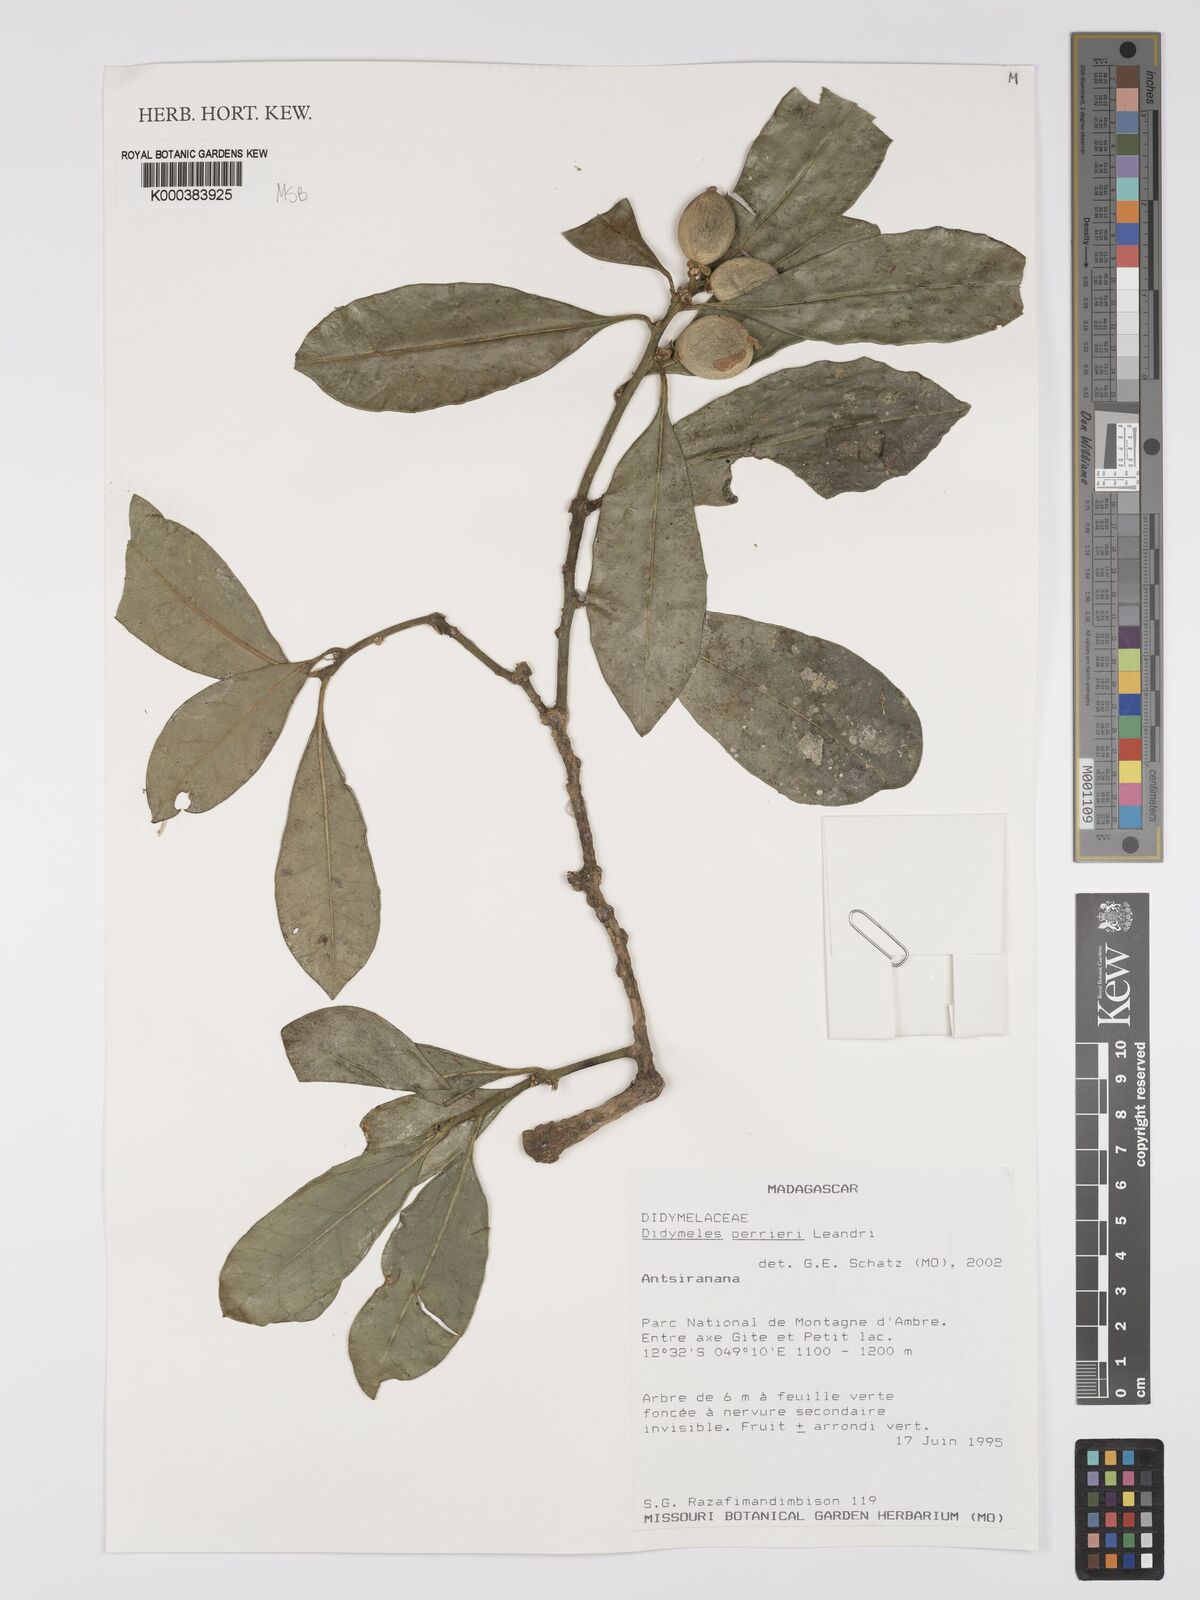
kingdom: Plantae
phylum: Tracheophyta
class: Magnoliopsida
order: Buxales
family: Buxaceae
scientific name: Buxaceae
